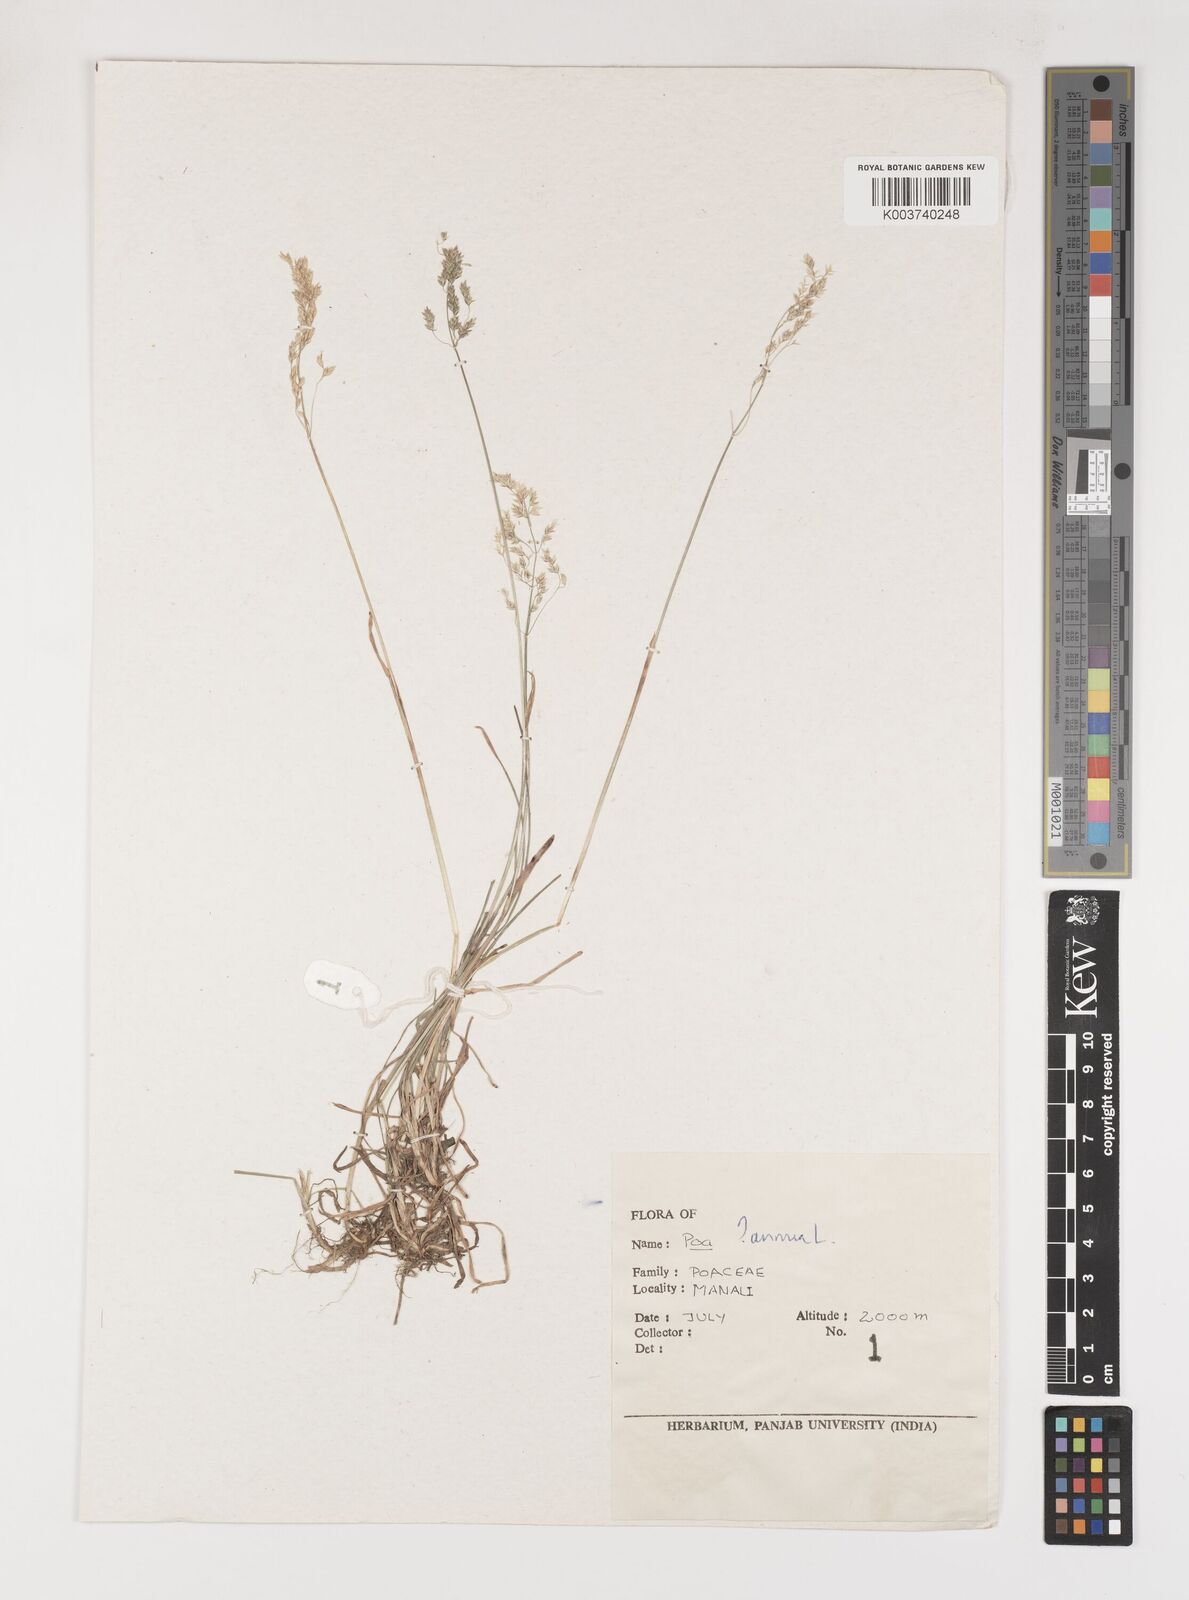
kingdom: Plantae
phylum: Tracheophyta
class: Liliopsida
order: Poales
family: Poaceae
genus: Poa
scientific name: Poa annua
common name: Annual bluegrass
